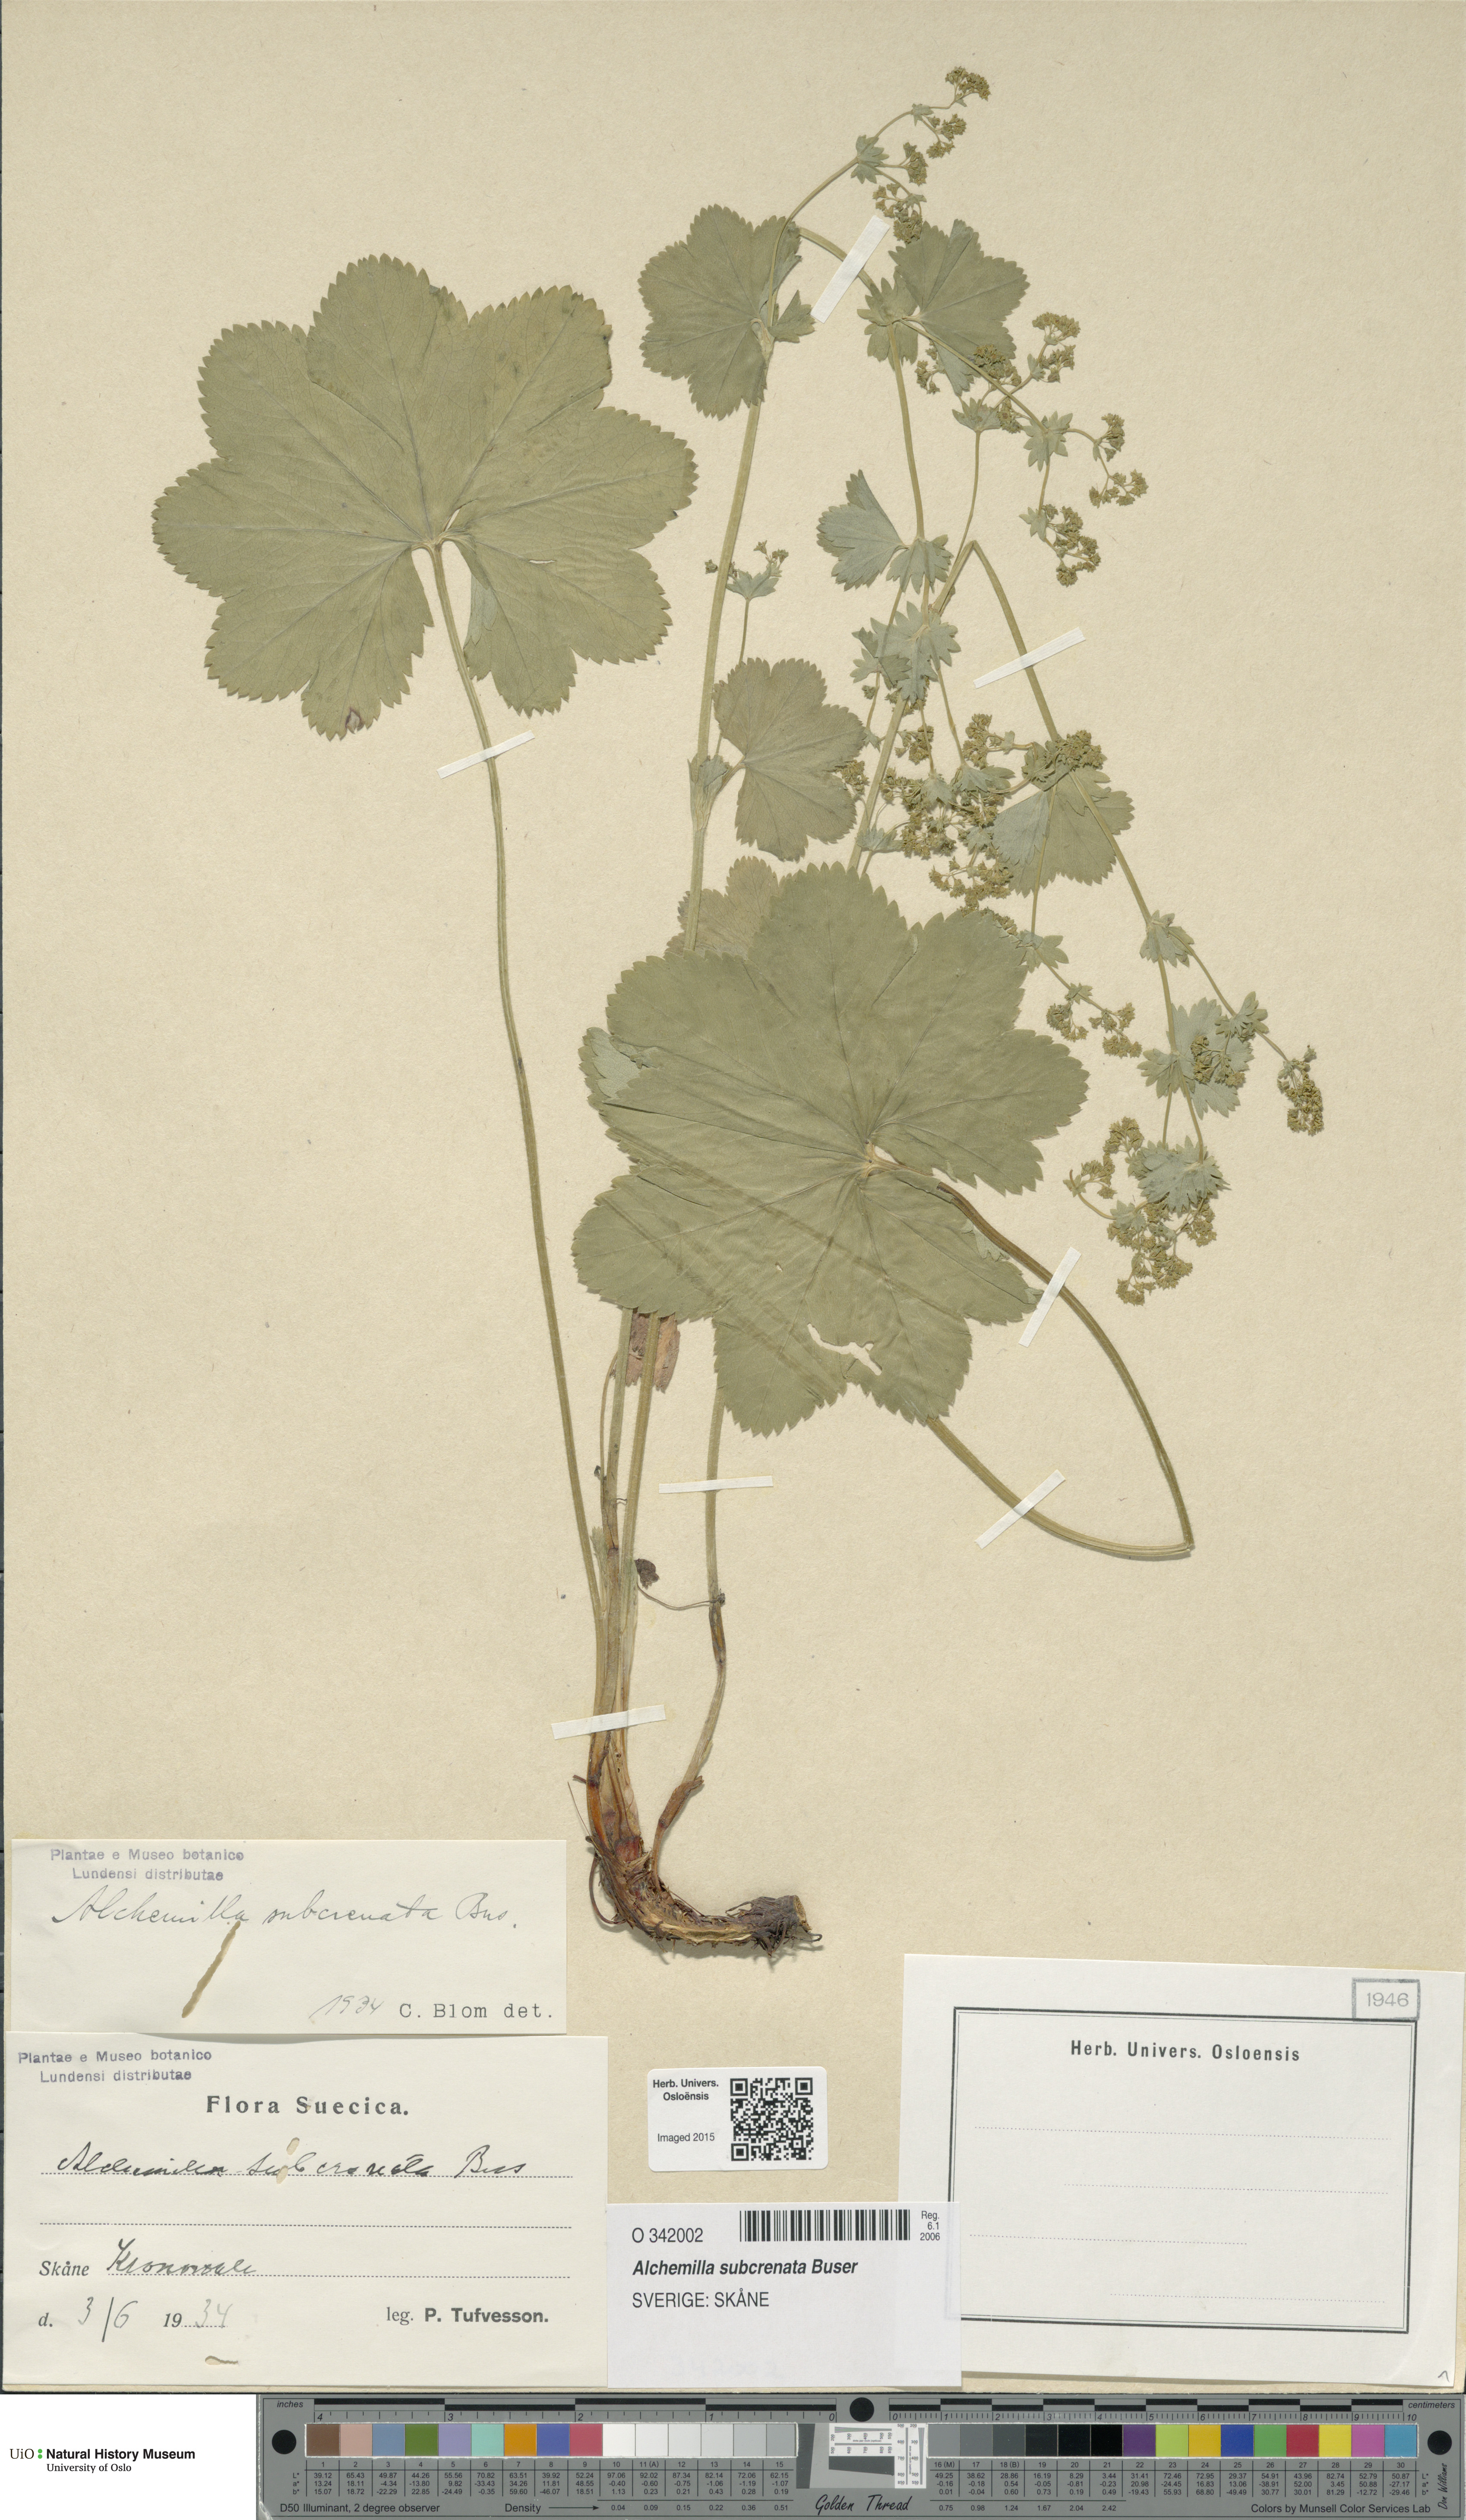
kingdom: Plantae
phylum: Tracheophyta
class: Magnoliopsida
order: Rosales
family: Rosaceae
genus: Alchemilla
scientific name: Alchemilla subcrenata
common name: Broadtooth lady's mantle
